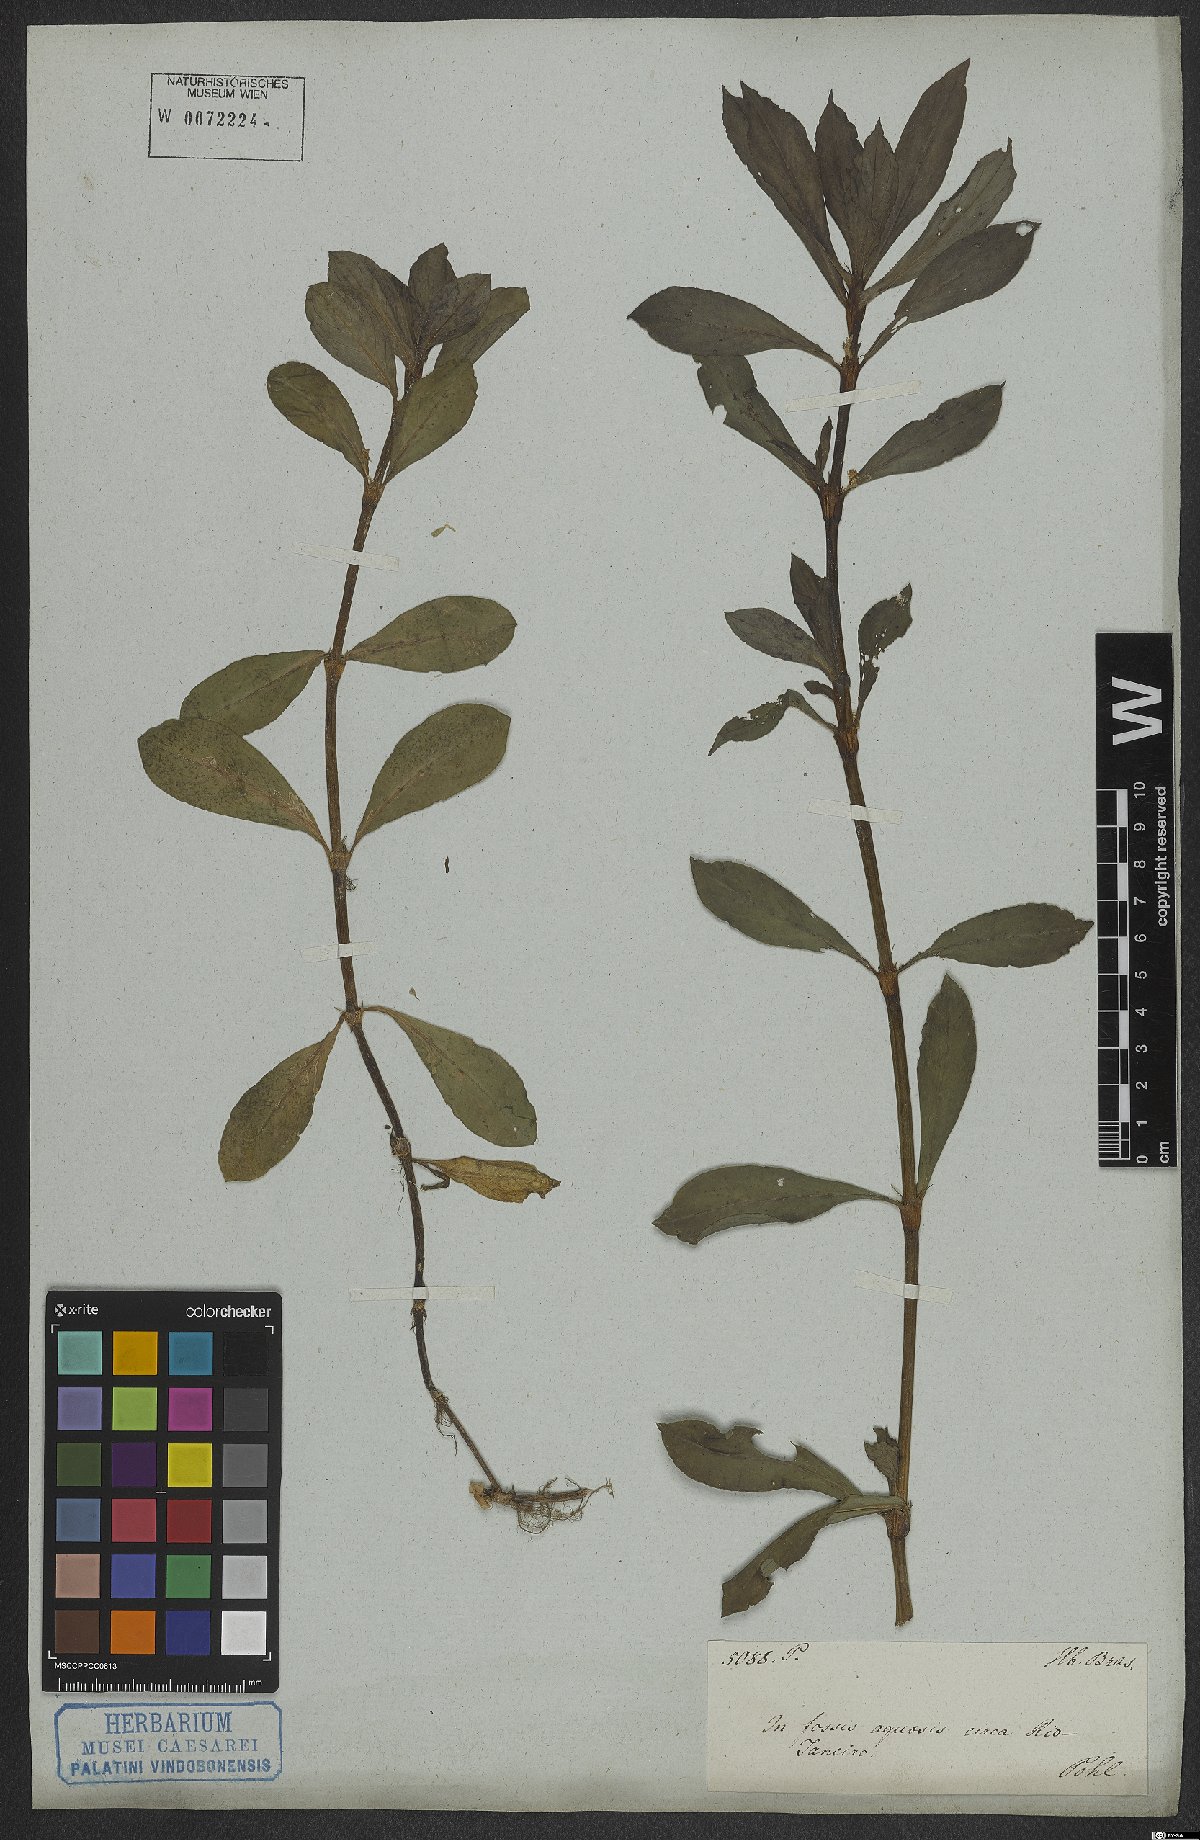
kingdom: Plantae
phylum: Tracheophyta
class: Magnoliopsida
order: Gentianales
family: Rubiaceae
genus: Diodia
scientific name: Diodia saponariifolia
